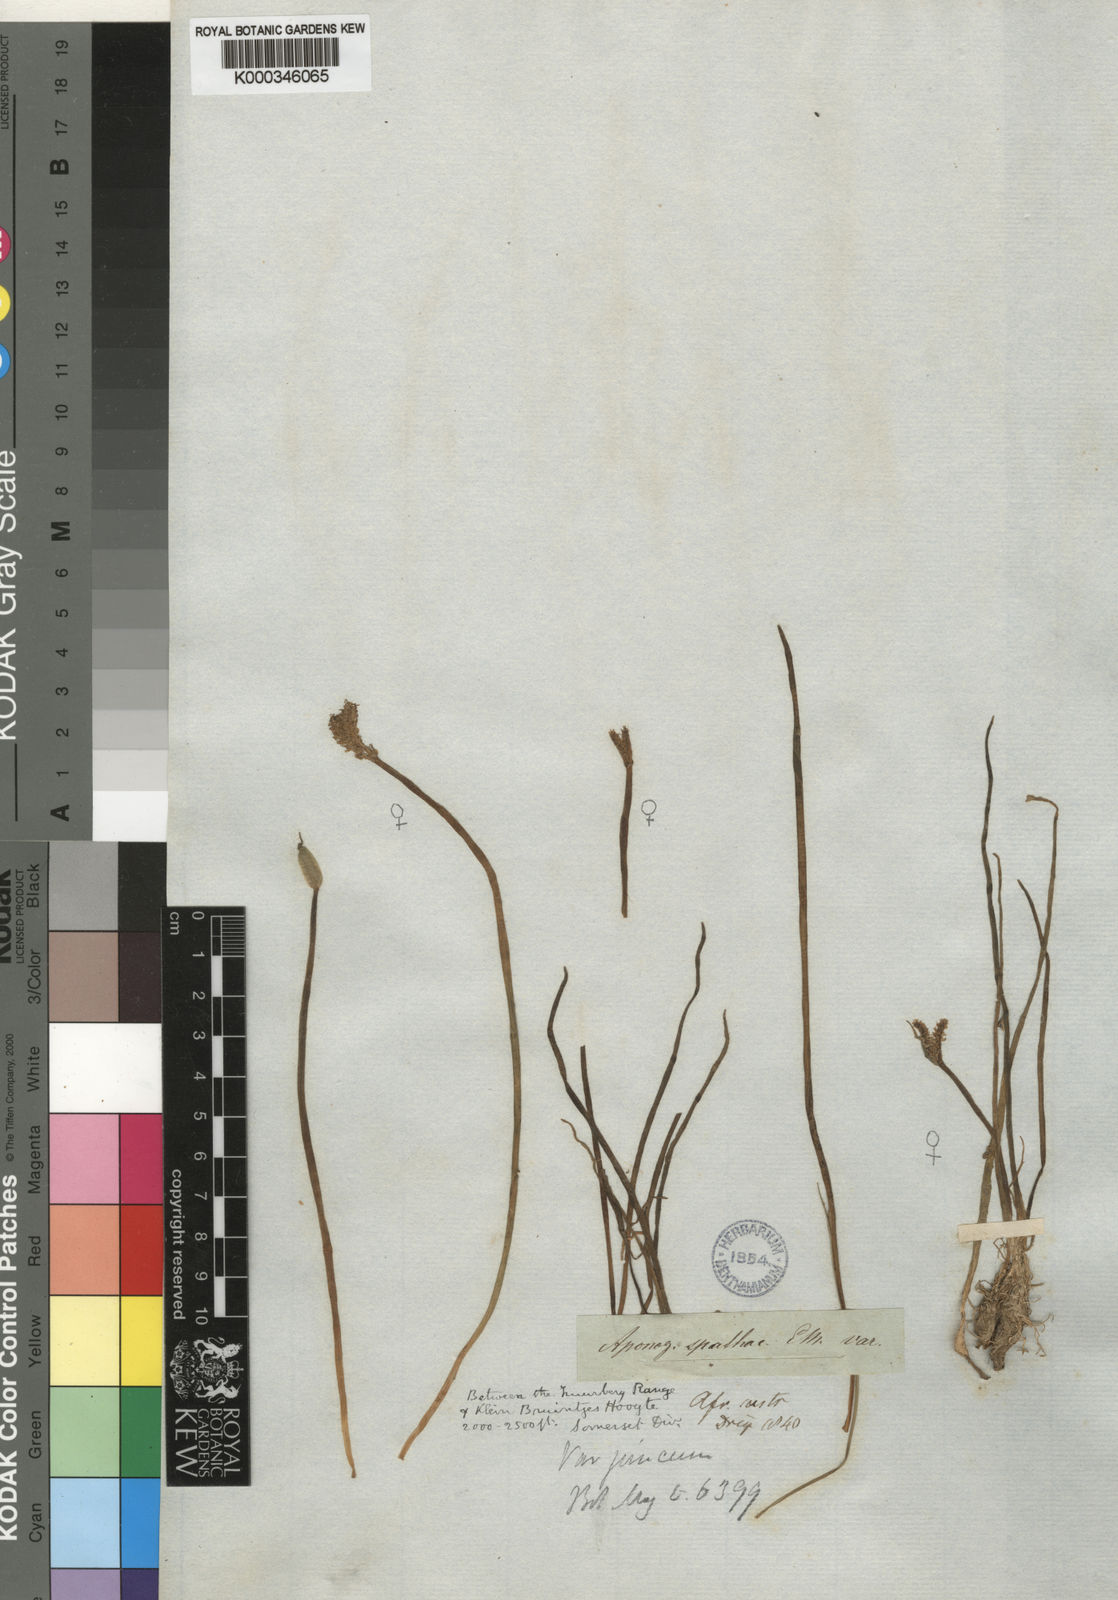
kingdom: Plantae
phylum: Tracheophyta
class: Liliopsida
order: Alismatales
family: Aponogetonaceae
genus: Aponogeton
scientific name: Aponogeton junceus
